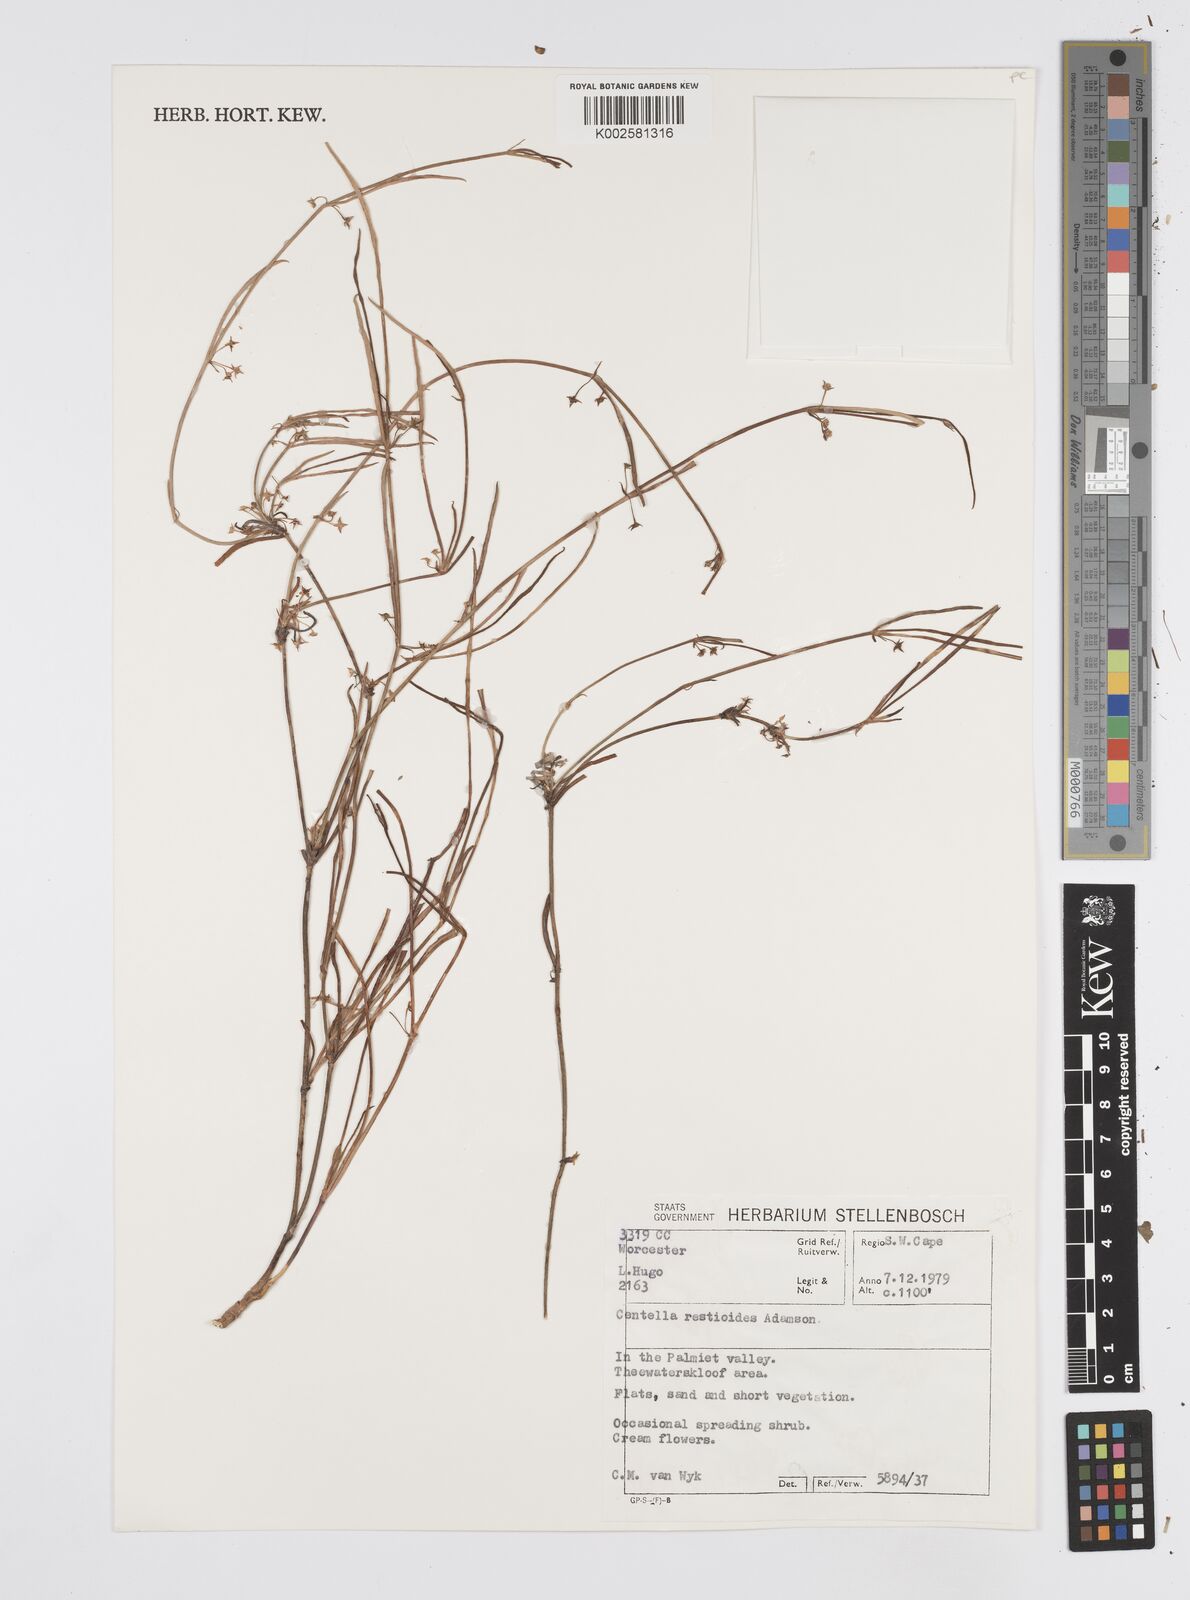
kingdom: Plantae
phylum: Tracheophyta
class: Magnoliopsida
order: Apiales
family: Apiaceae
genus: Centella
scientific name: Centella restioides
